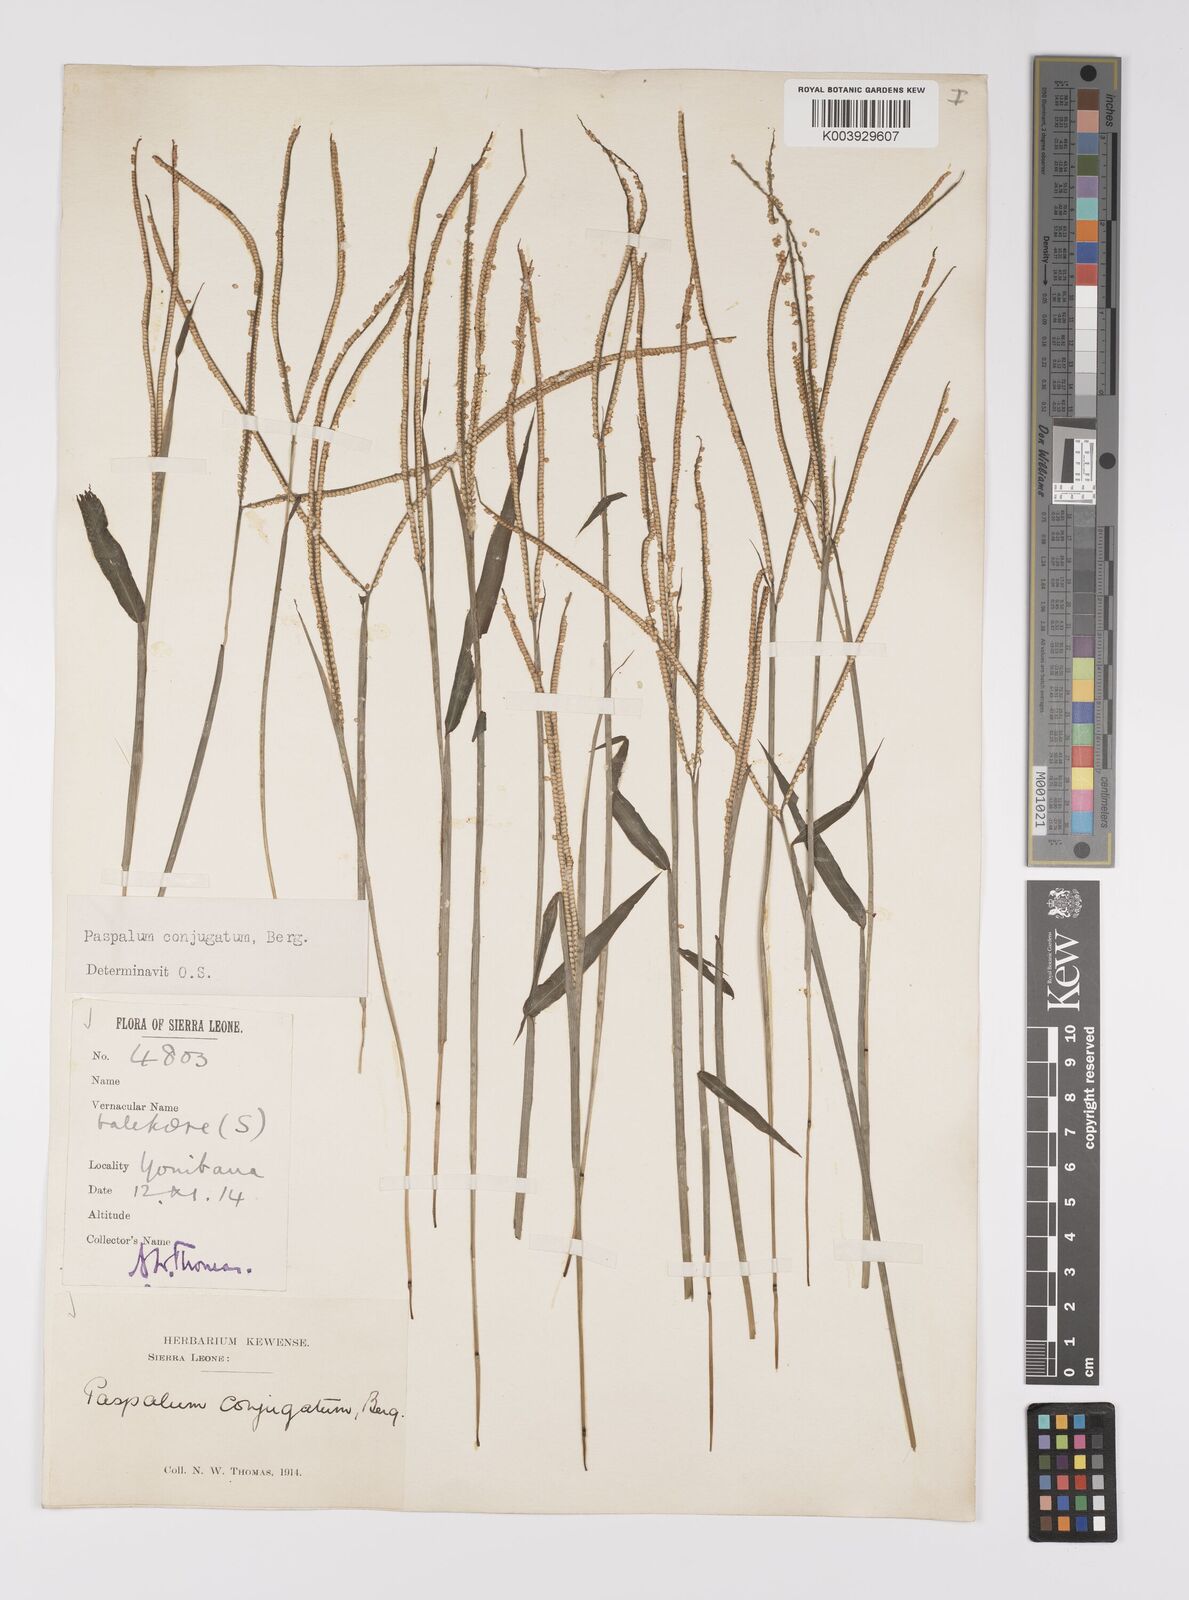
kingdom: Plantae
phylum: Tracheophyta
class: Liliopsida
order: Poales
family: Poaceae
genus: Paspalum
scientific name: Paspalum conjugatum
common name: Hilograss
